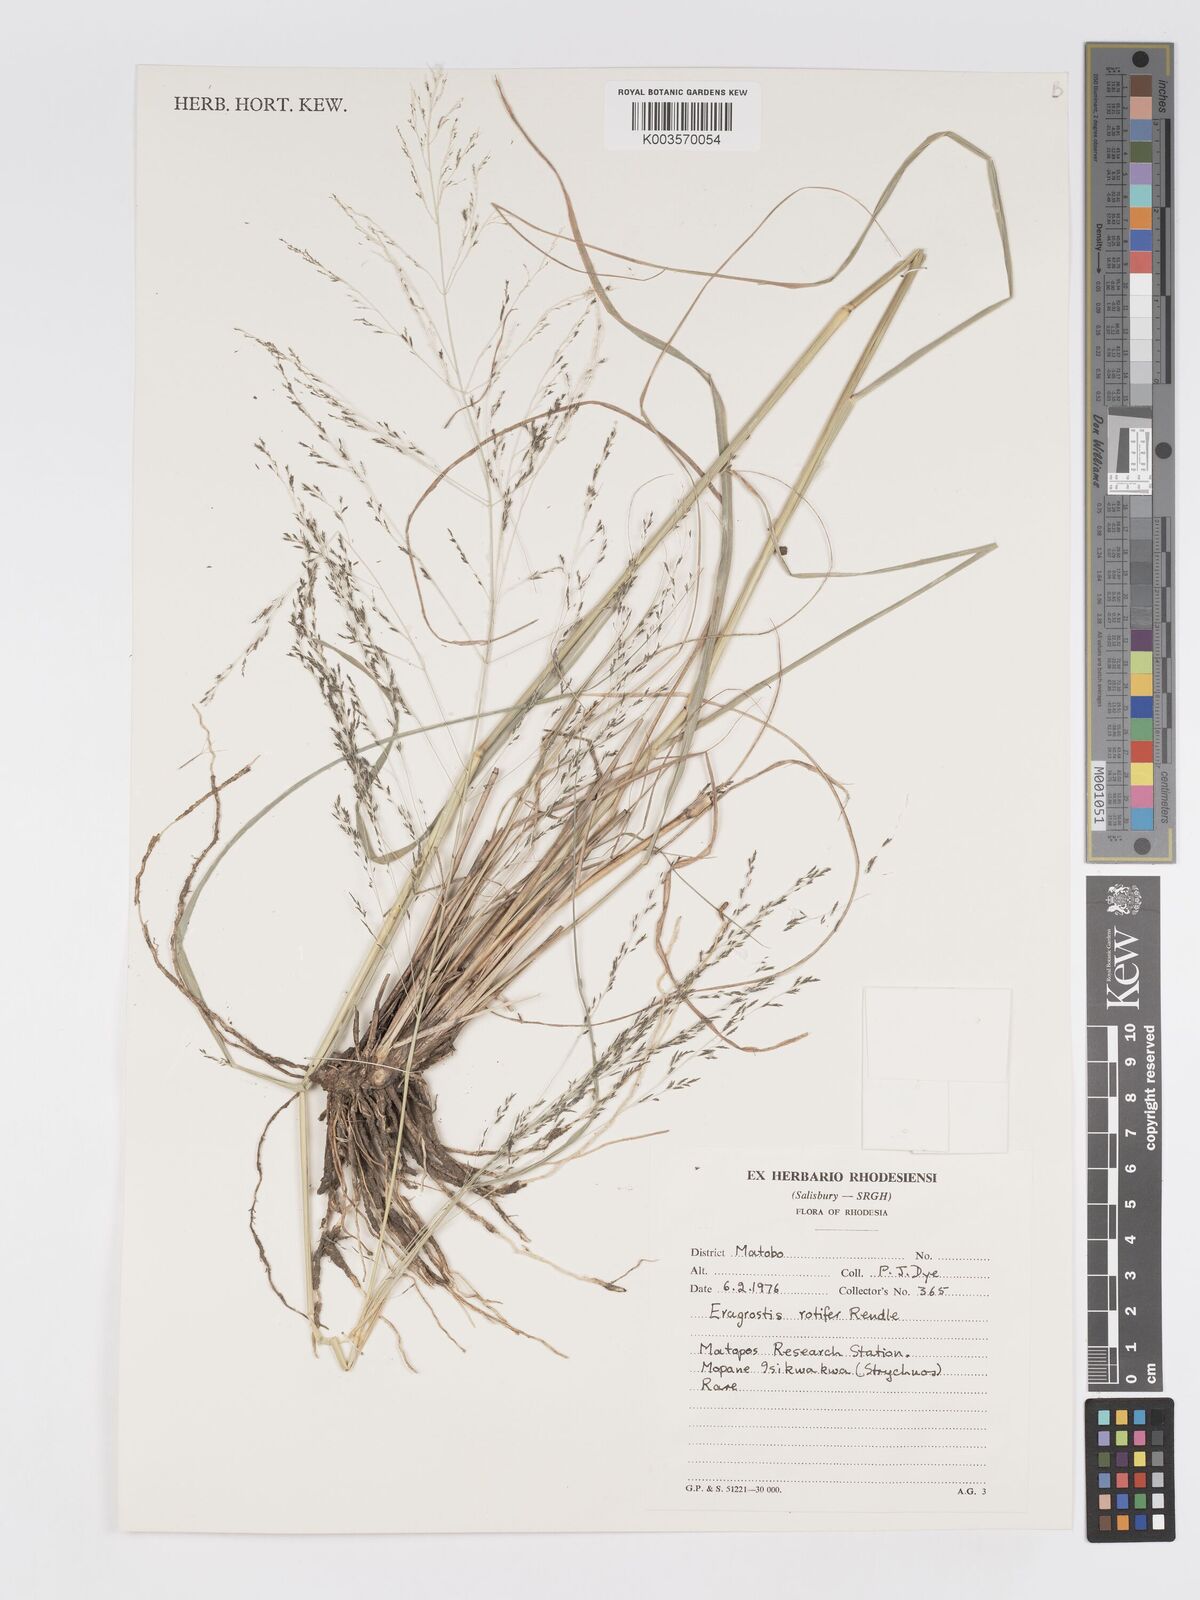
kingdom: Plantae
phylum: Tracheophyta
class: Liliopsida
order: Poales
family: Poaceae
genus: Eragrostis
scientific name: Eragrostis rotifer
